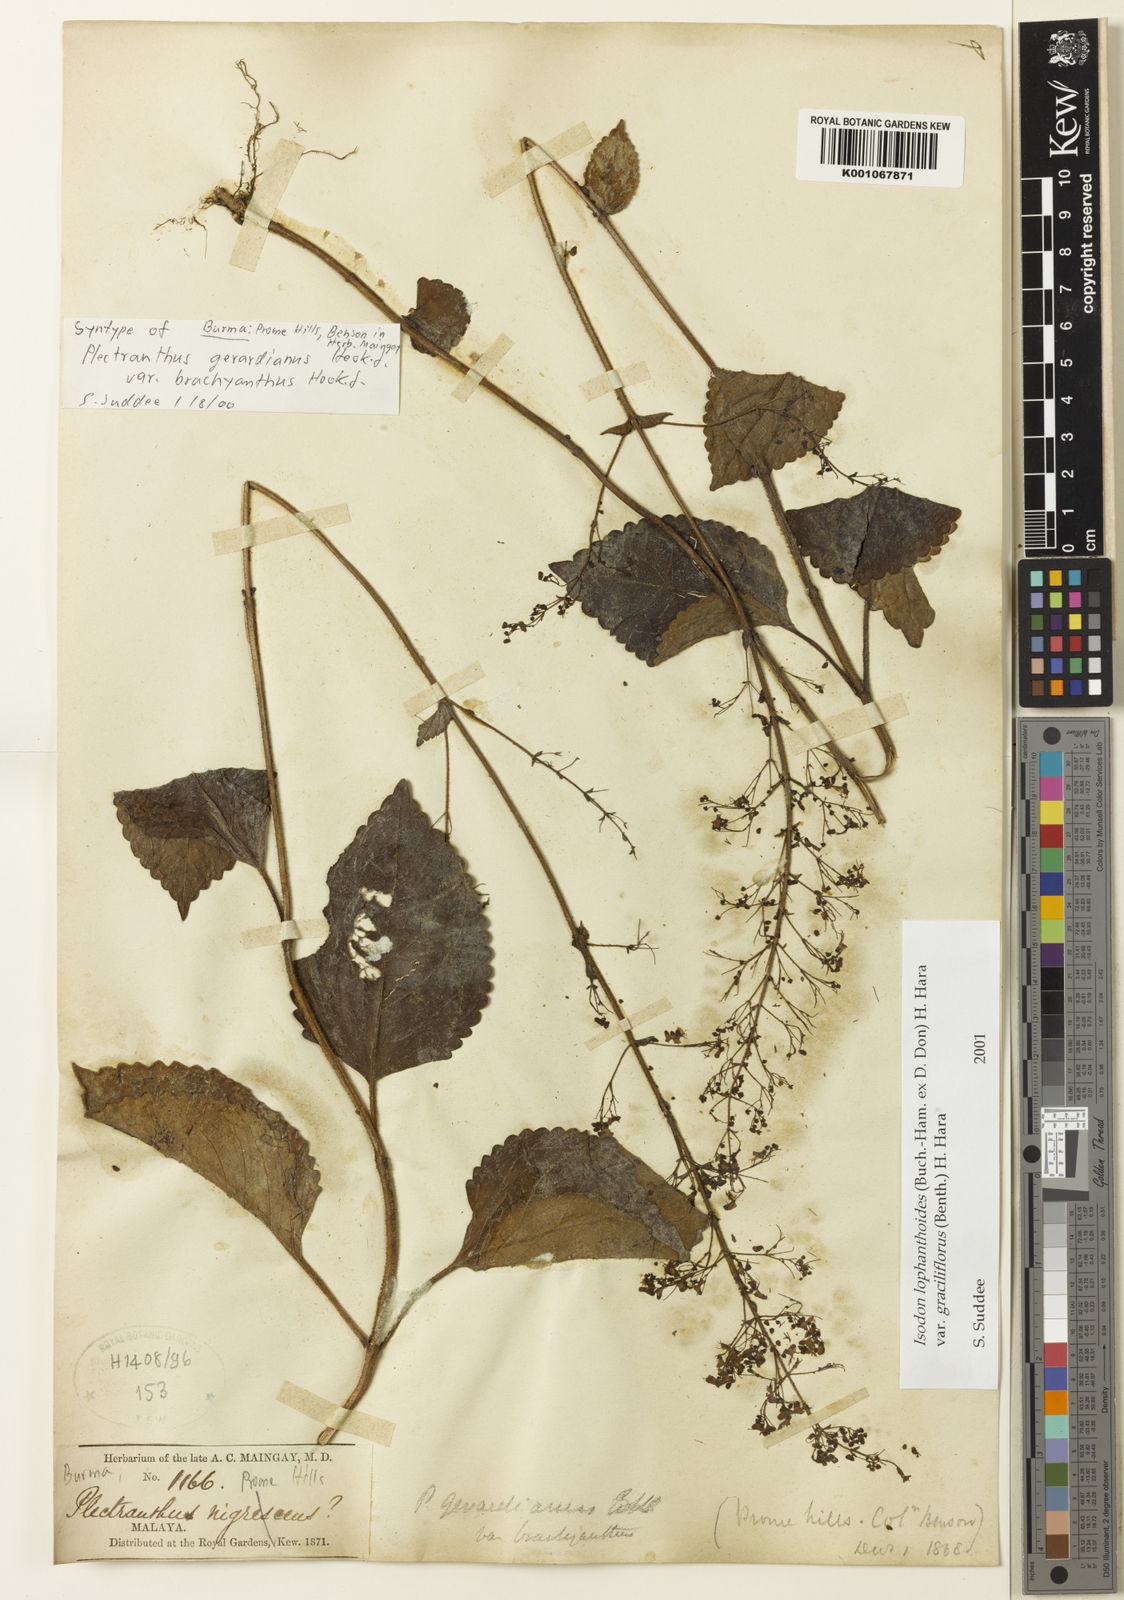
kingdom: Plantae
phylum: Tracheophyta
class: Magnoliopsida
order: Lamiales
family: Lamiaceae
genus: Isodon
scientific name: Isodon lophanthoides
